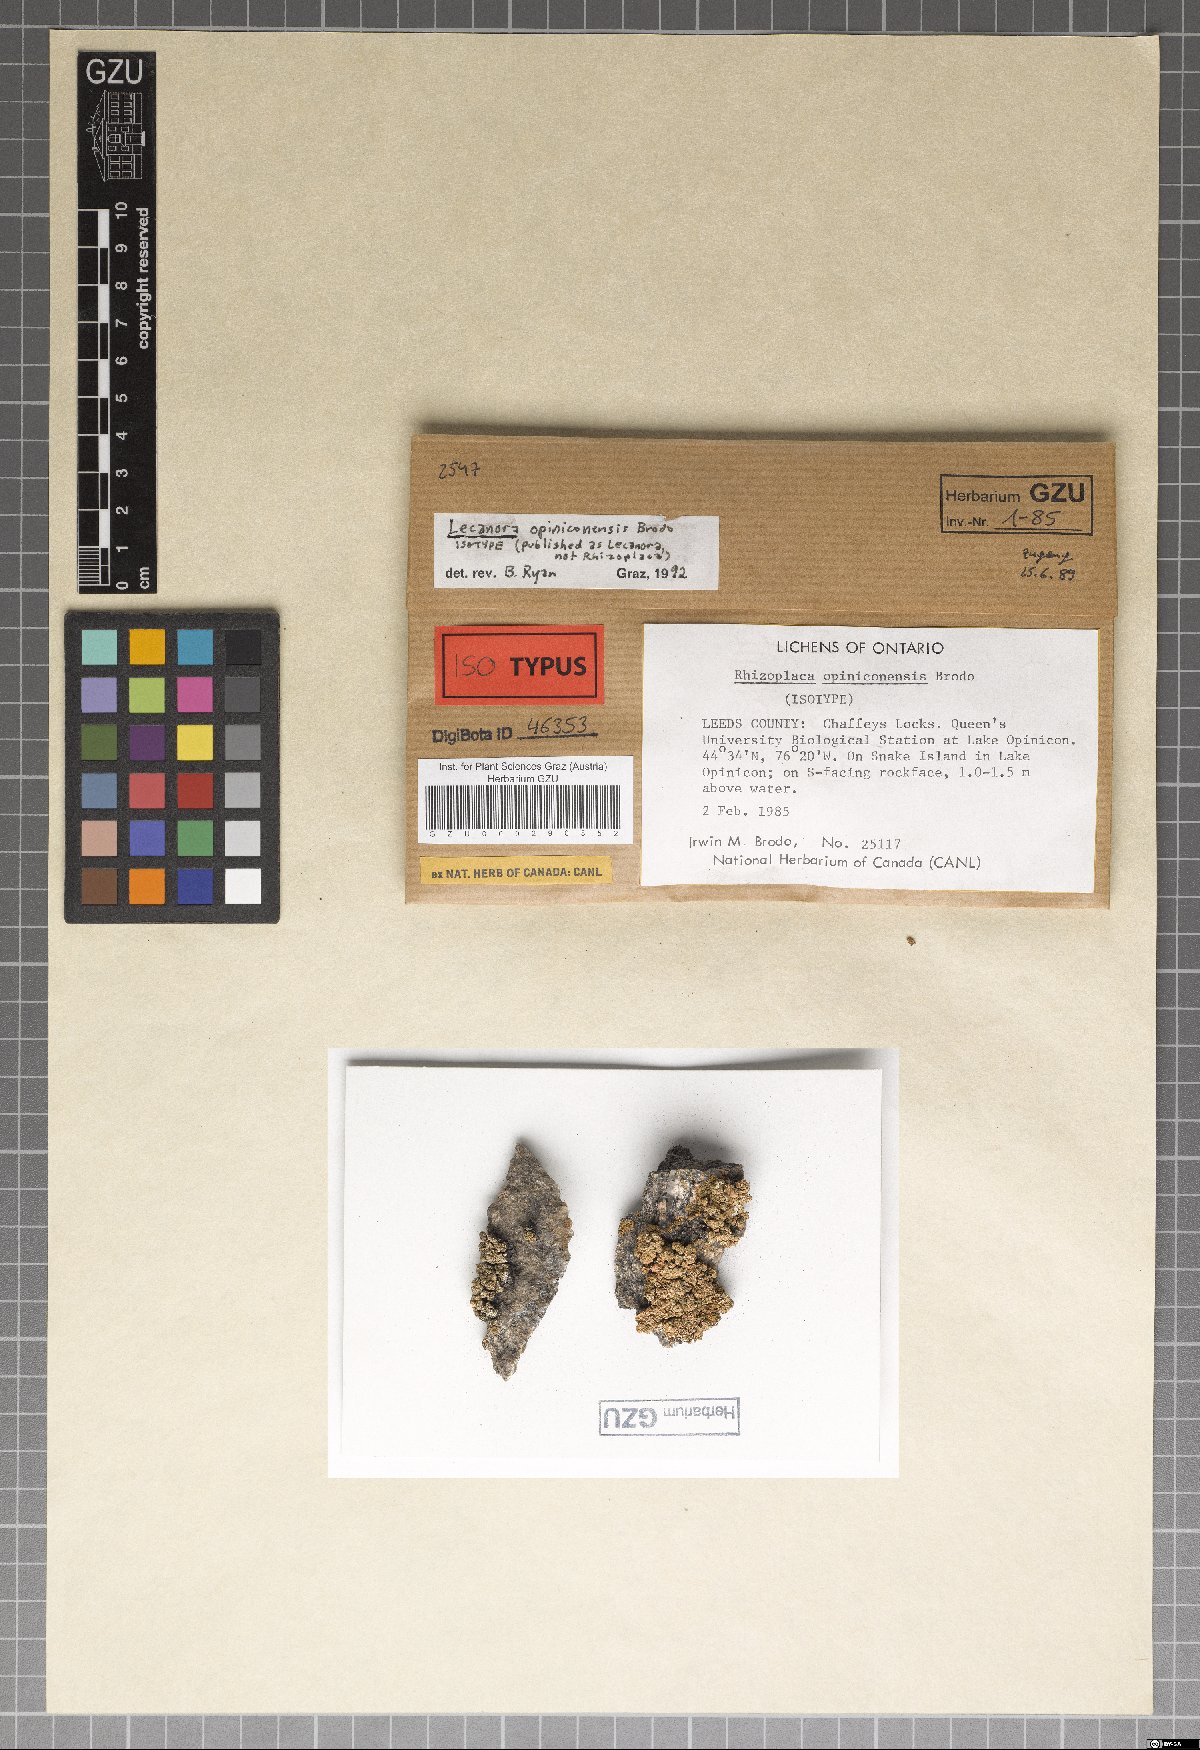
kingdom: Fungi
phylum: Ascomycota
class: Lecanoromycetes
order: Lecanorales
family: Lecanoraceae
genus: Omphalodina
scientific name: Omphalodina opiniconensis
